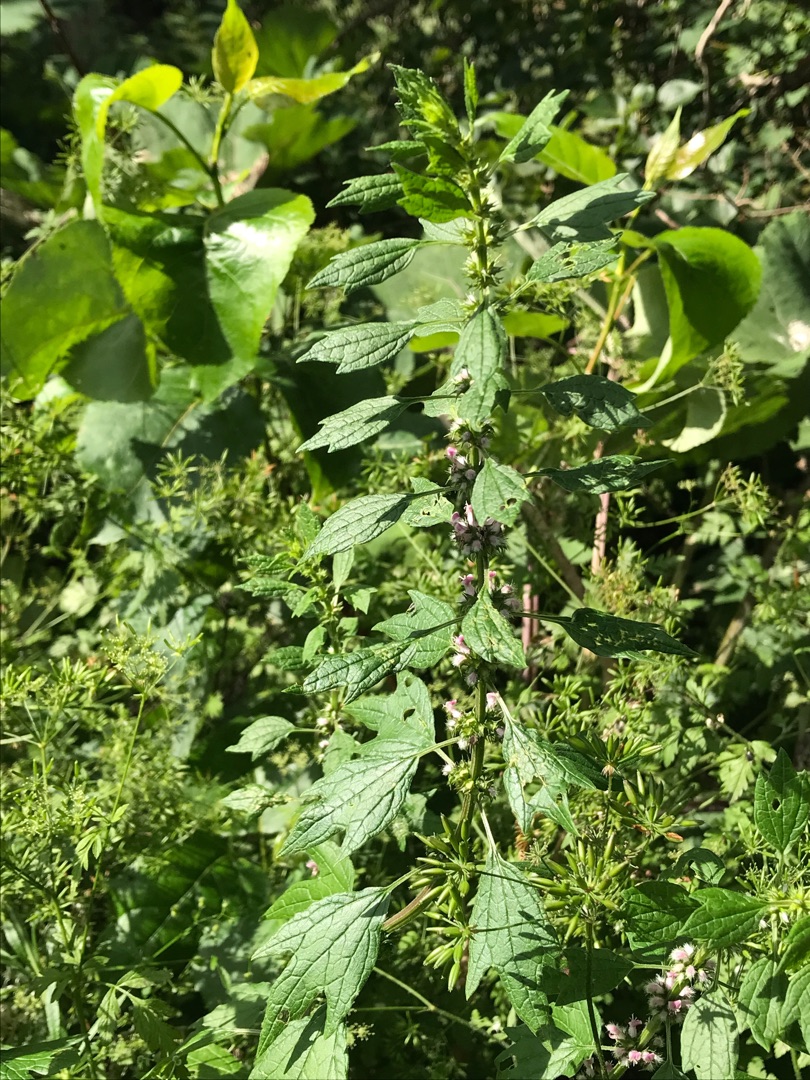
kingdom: Plantae
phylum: Tracheophyta
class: Magnoliopsida
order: Lamiales
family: Lamiaceae
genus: Leonurus
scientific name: Leonurus cardiaca
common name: Hjertespand
